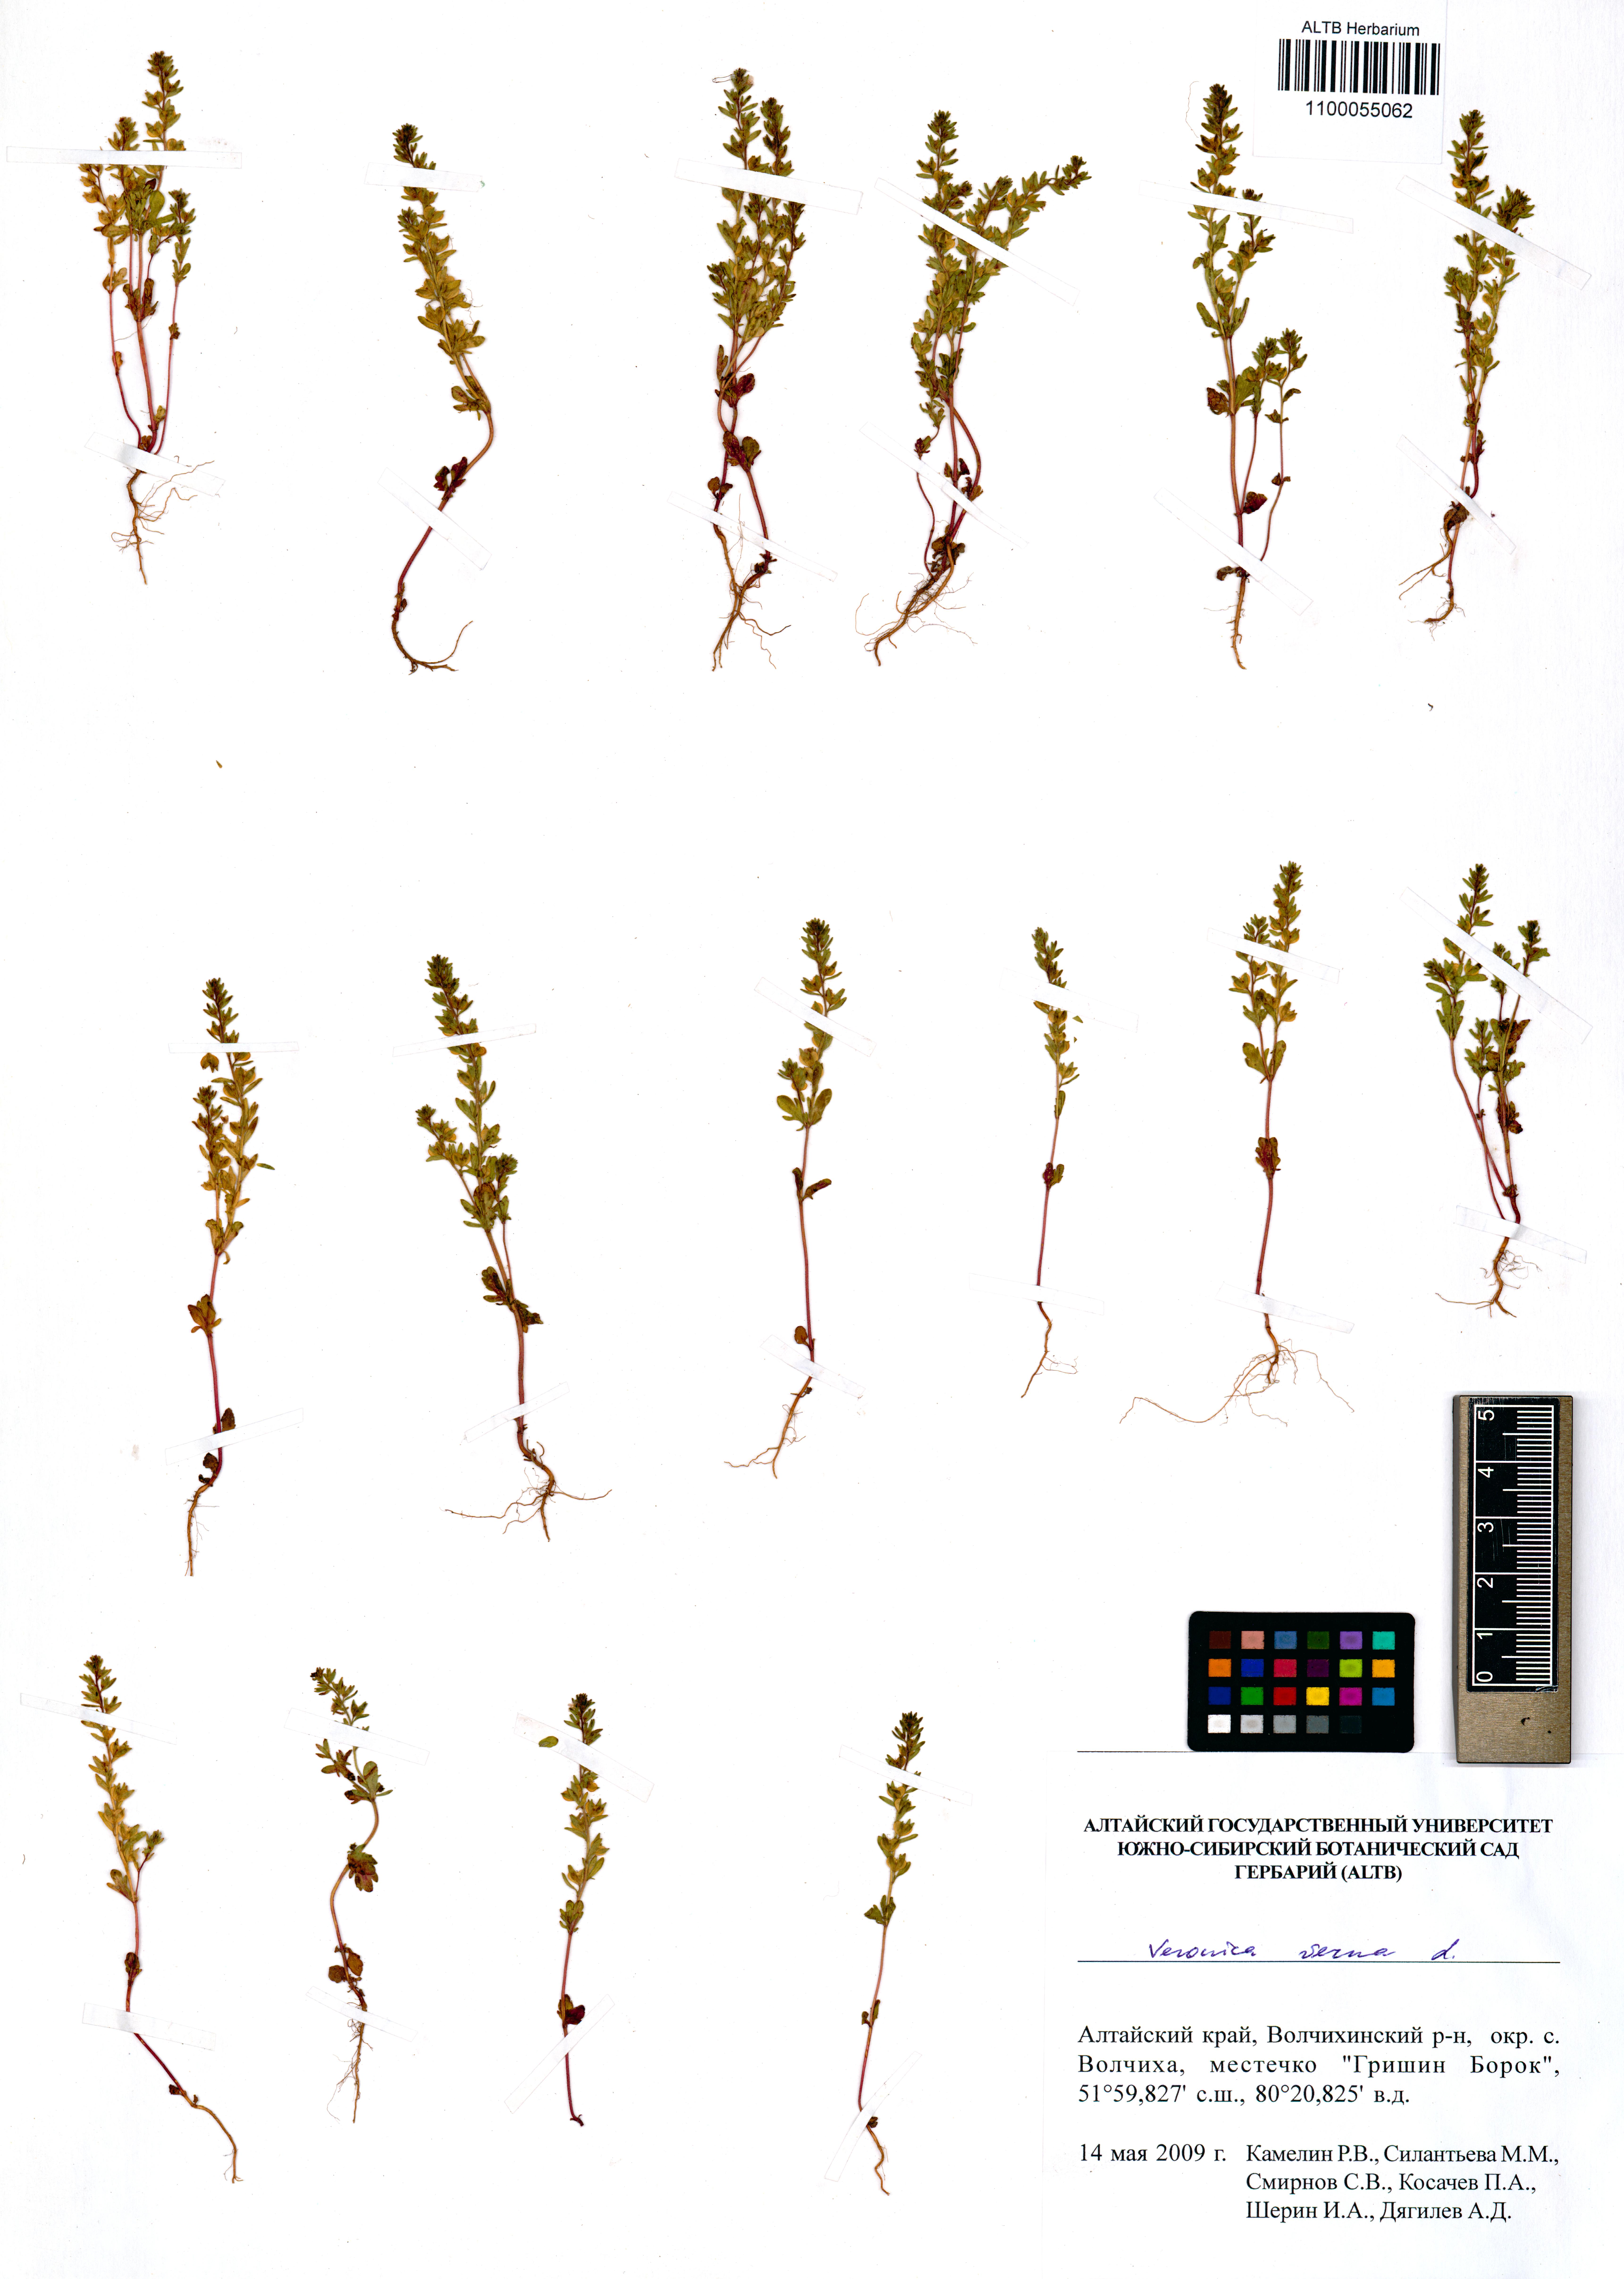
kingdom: Plantae
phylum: Tracheophyta
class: Magnoliopsida
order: Lamiales
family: Plantaginaceae
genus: Veronica
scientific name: Veronica verna
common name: Spring speedwell
